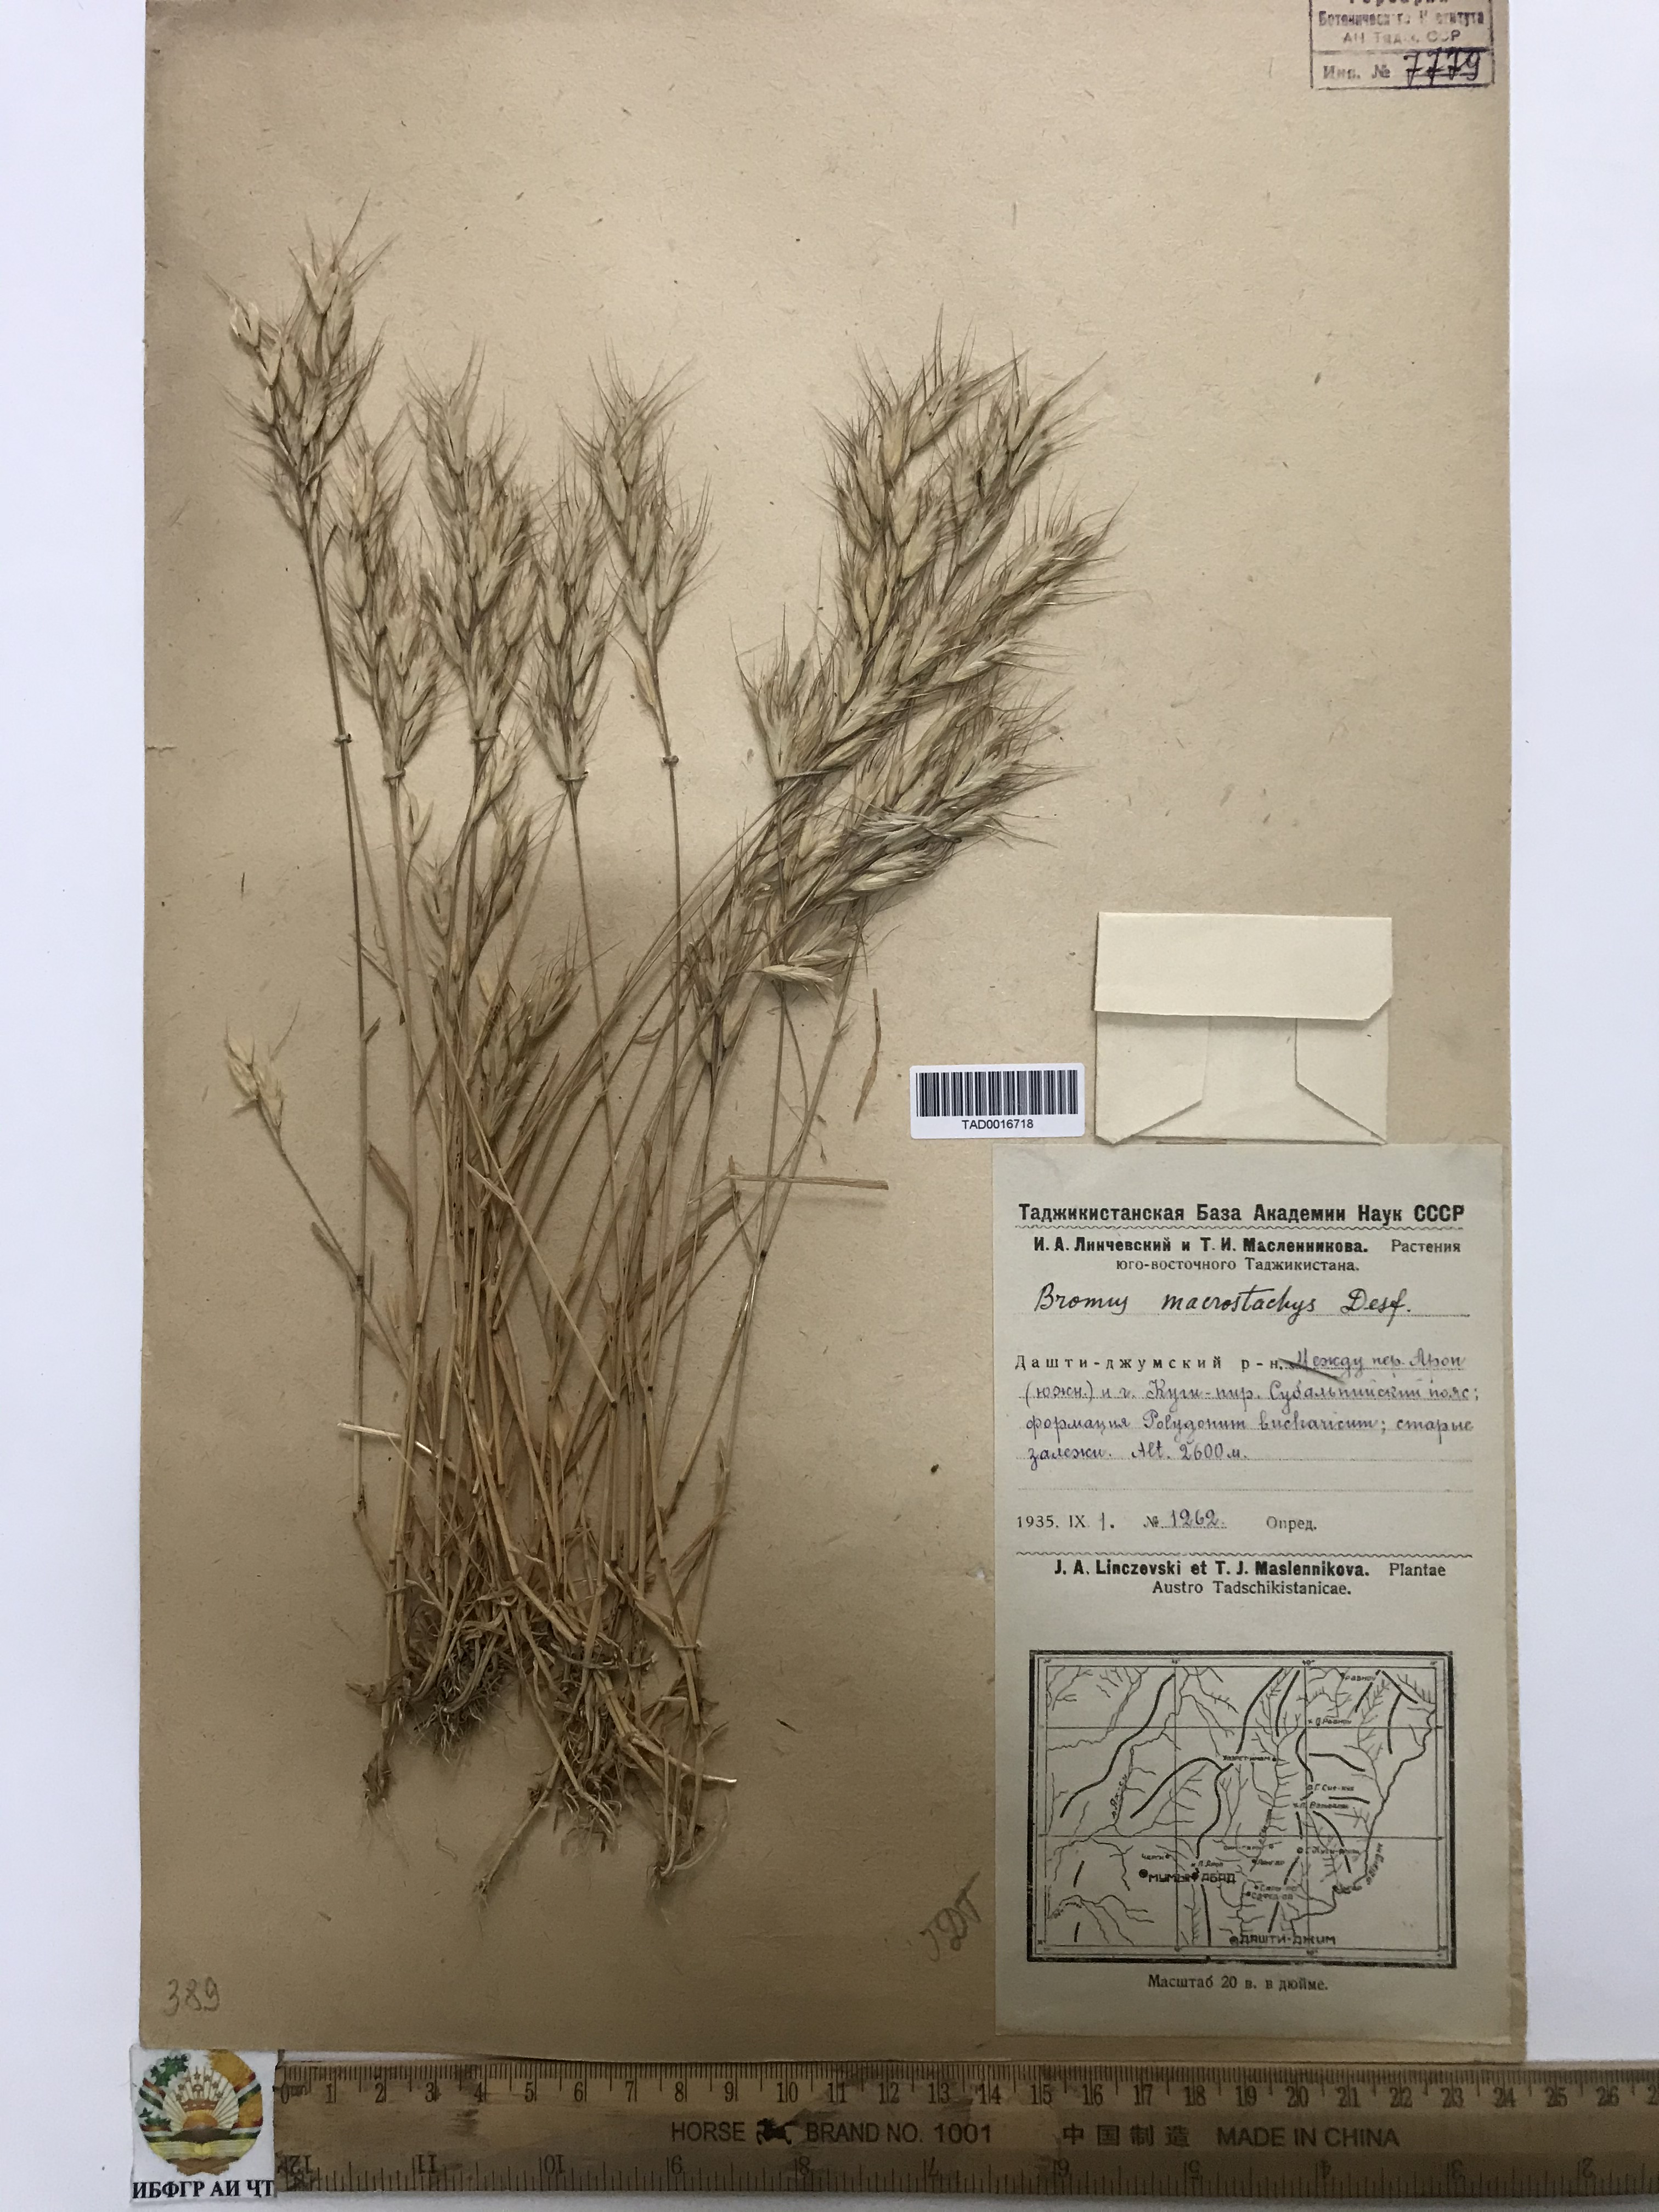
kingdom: Plantae
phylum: Tracheophyta
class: Liliopsida
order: Poales
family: Poaceae
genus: Bromus
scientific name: Bromus lanceolatus
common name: Mediterranean brome
